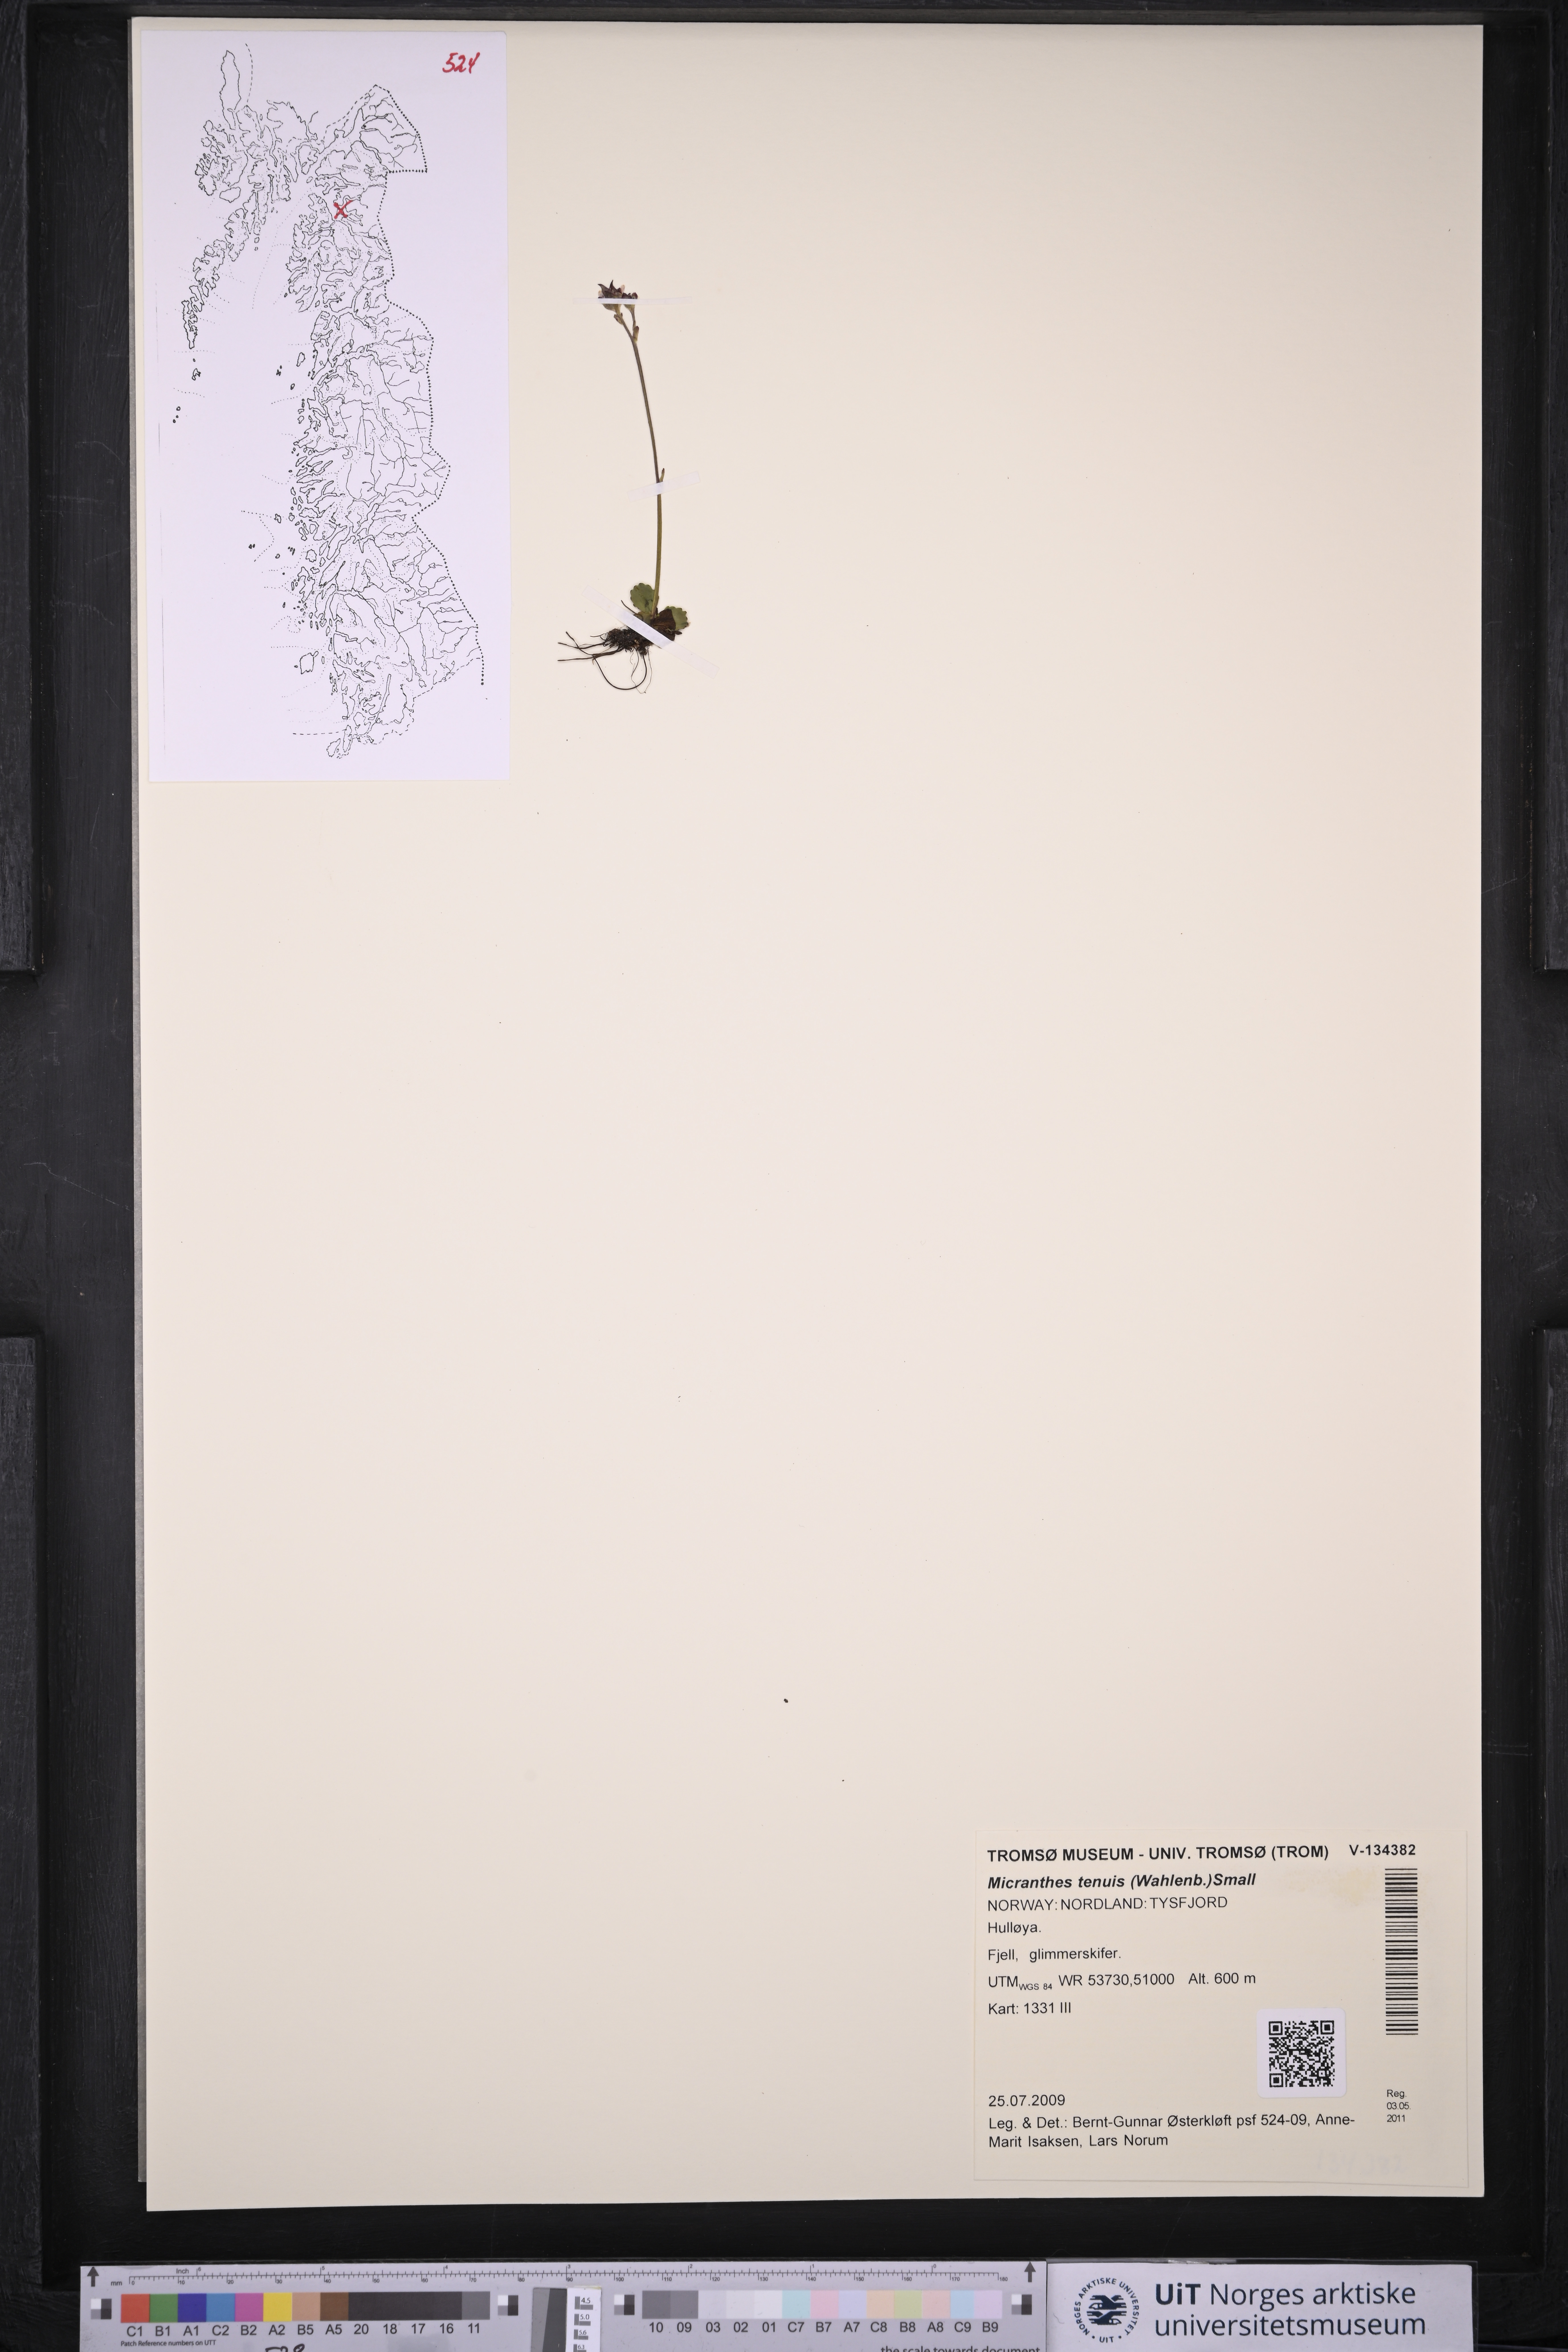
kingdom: Plantae
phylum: Tracheophyta
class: Magnoliopsida
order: Saxifragales
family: Saxifragaceae
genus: Micranthes
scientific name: Micranthes tenuis
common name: Ottertail pass saxifrage
